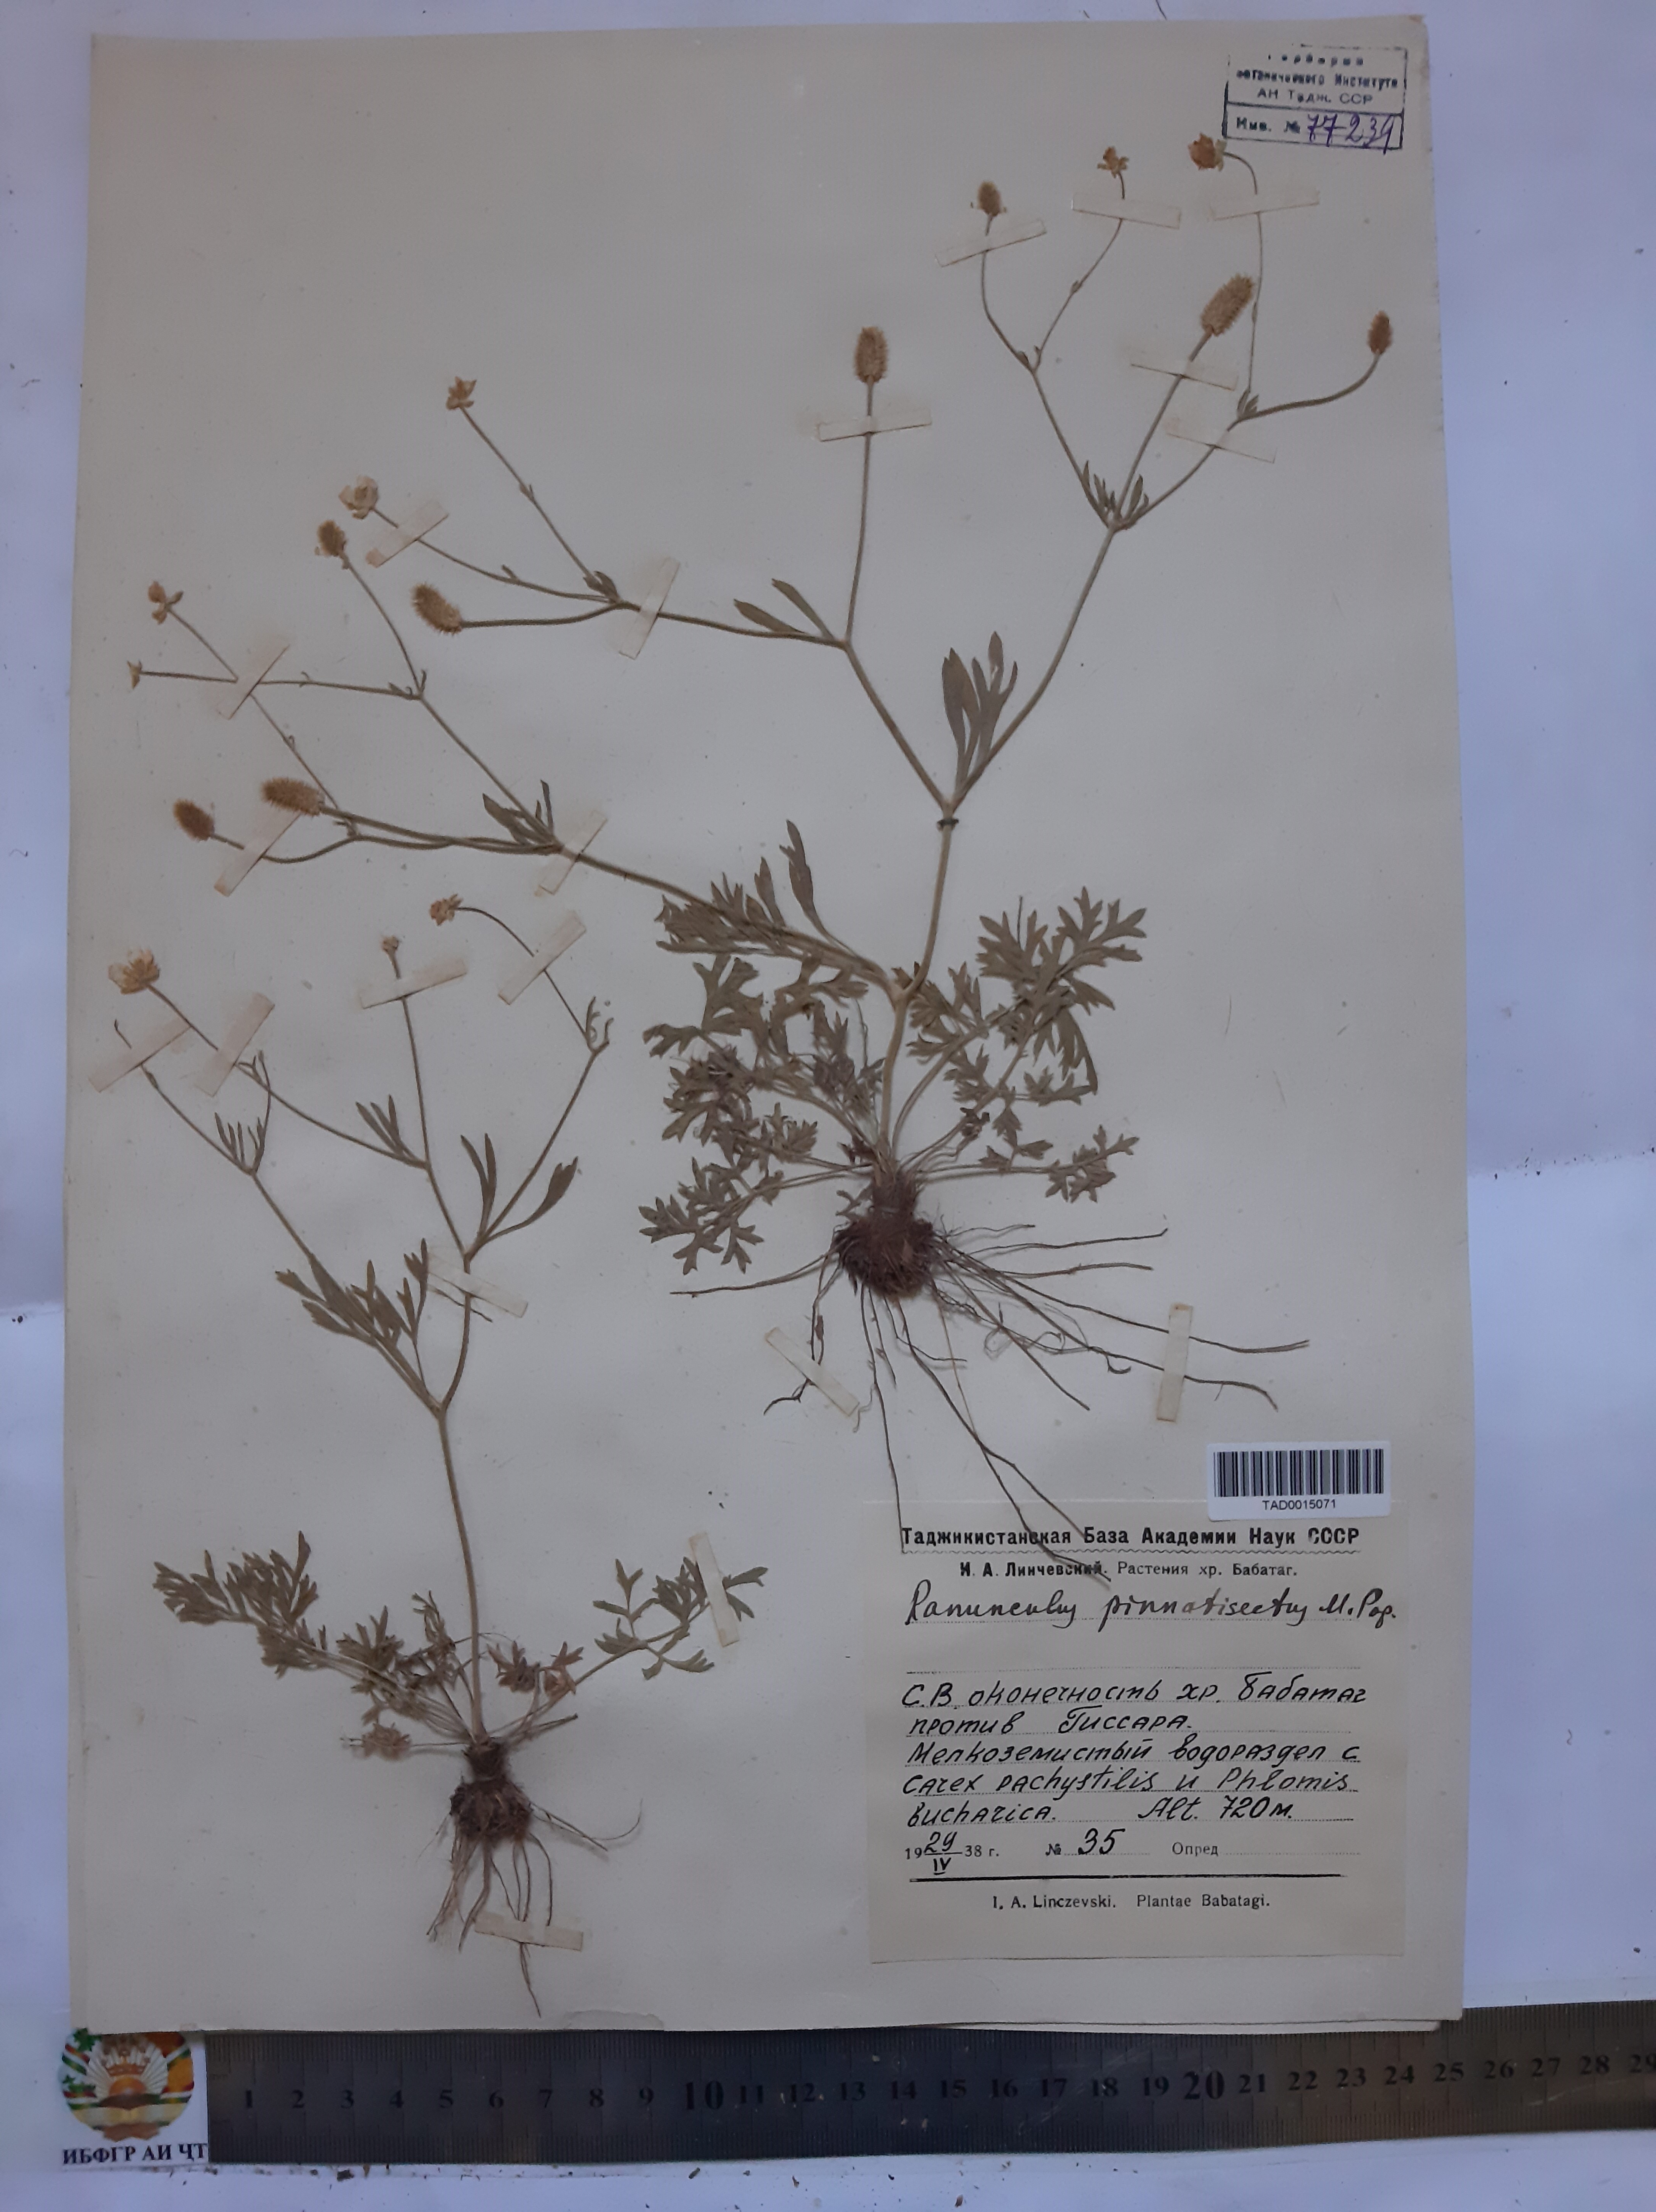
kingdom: Plantae
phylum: Tracheophyta
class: Magnoliopsida
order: Ranunculales
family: Ranunculaceae
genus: Ranunculus
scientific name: Ranunculus pinnatisectus
